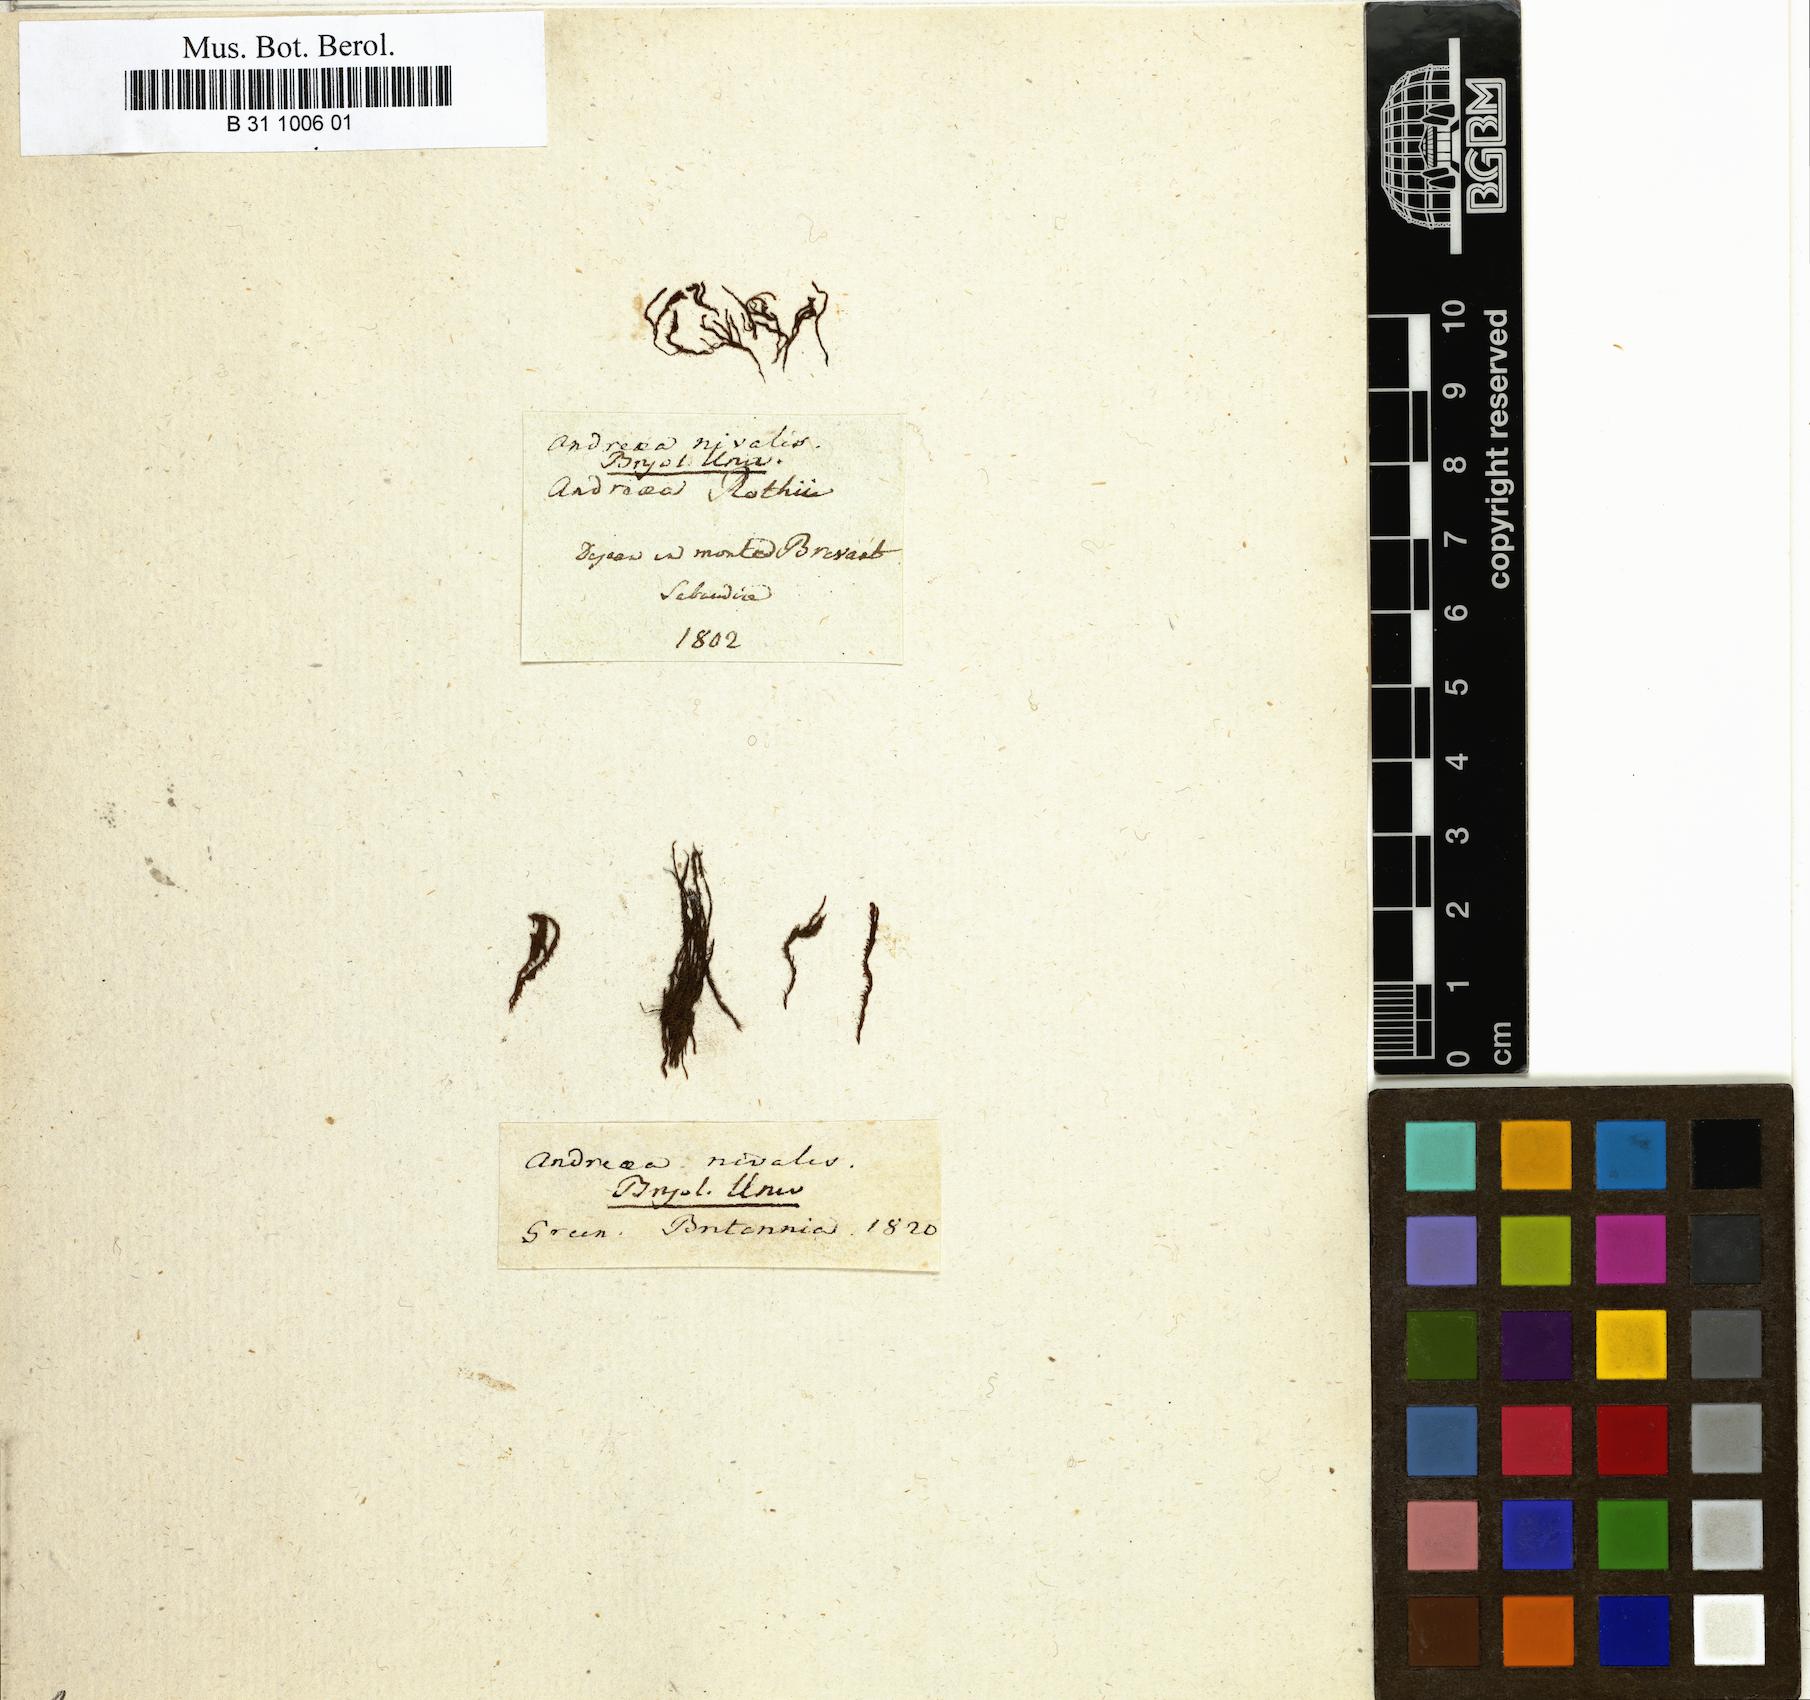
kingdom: Plantae
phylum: Bryophyta
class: Andreaeopsida
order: Andreaeales
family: Andreaeaceae
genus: Andreaea
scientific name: Andreaea nivalis
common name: Snow rock moss
